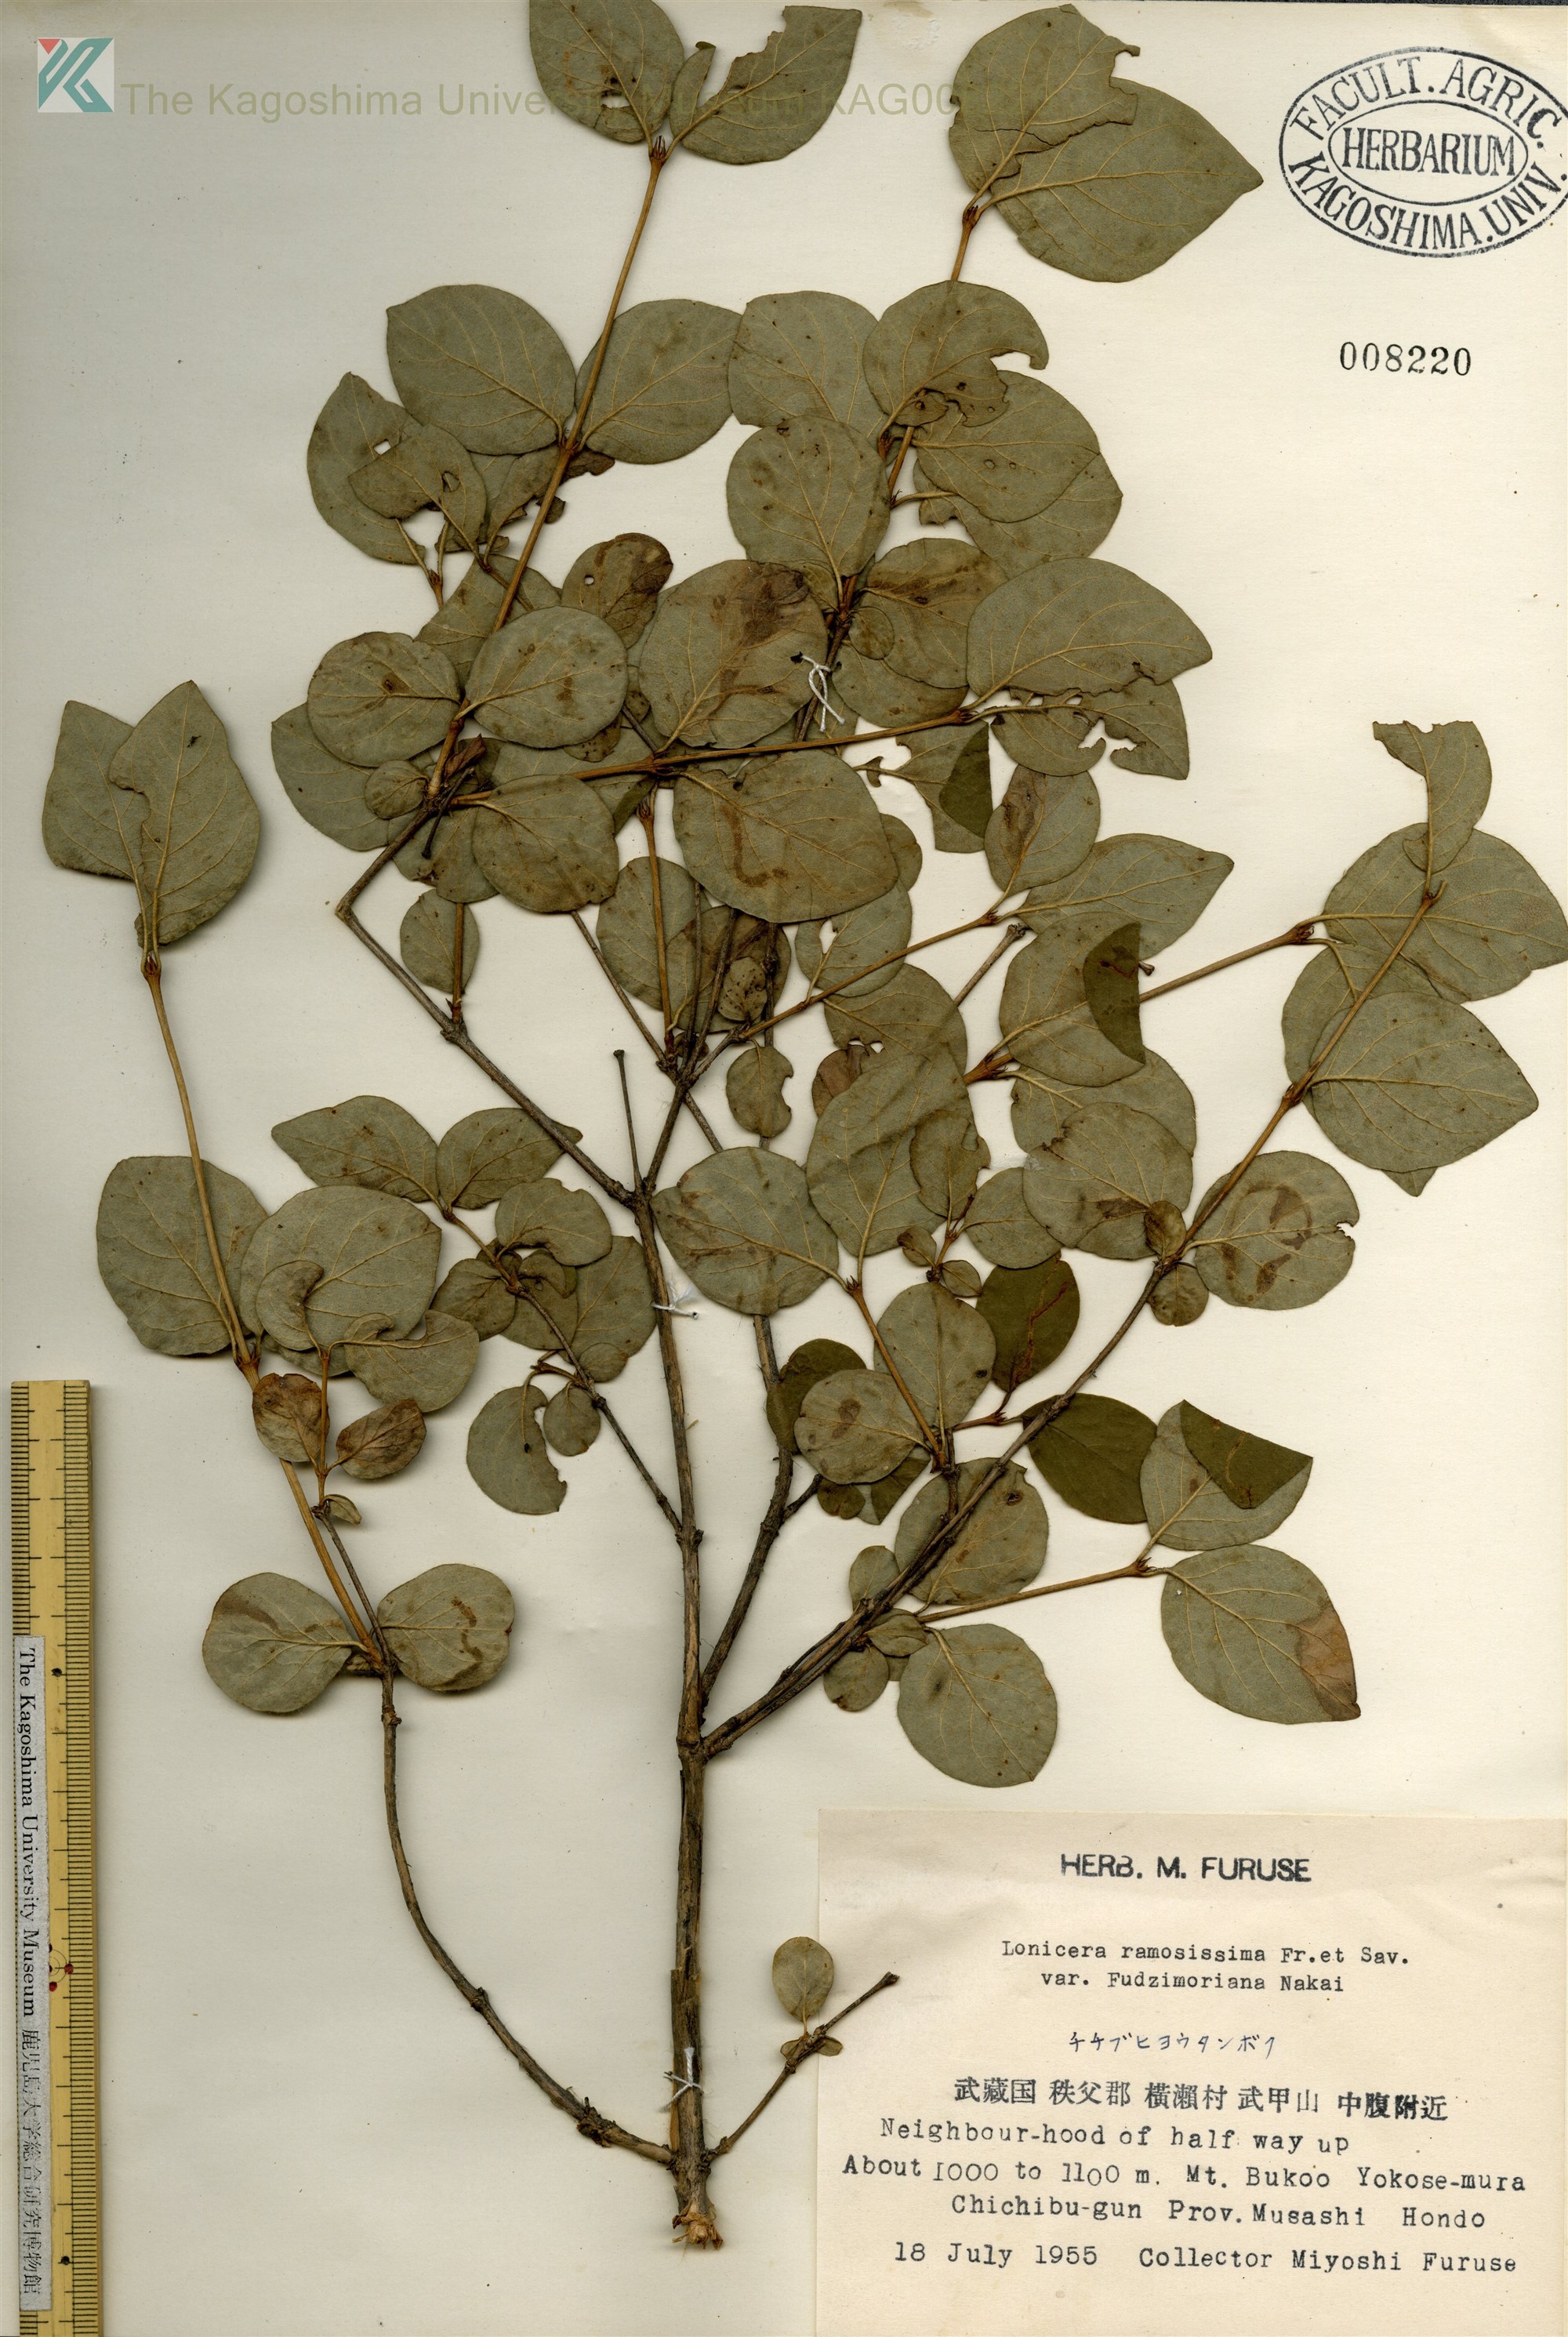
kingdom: Plantae
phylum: Tracheophyta
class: Magnoliopsida
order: Dipsacales
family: Caprifoliaceae
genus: Lonicera
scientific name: Lonicera ramosissima
